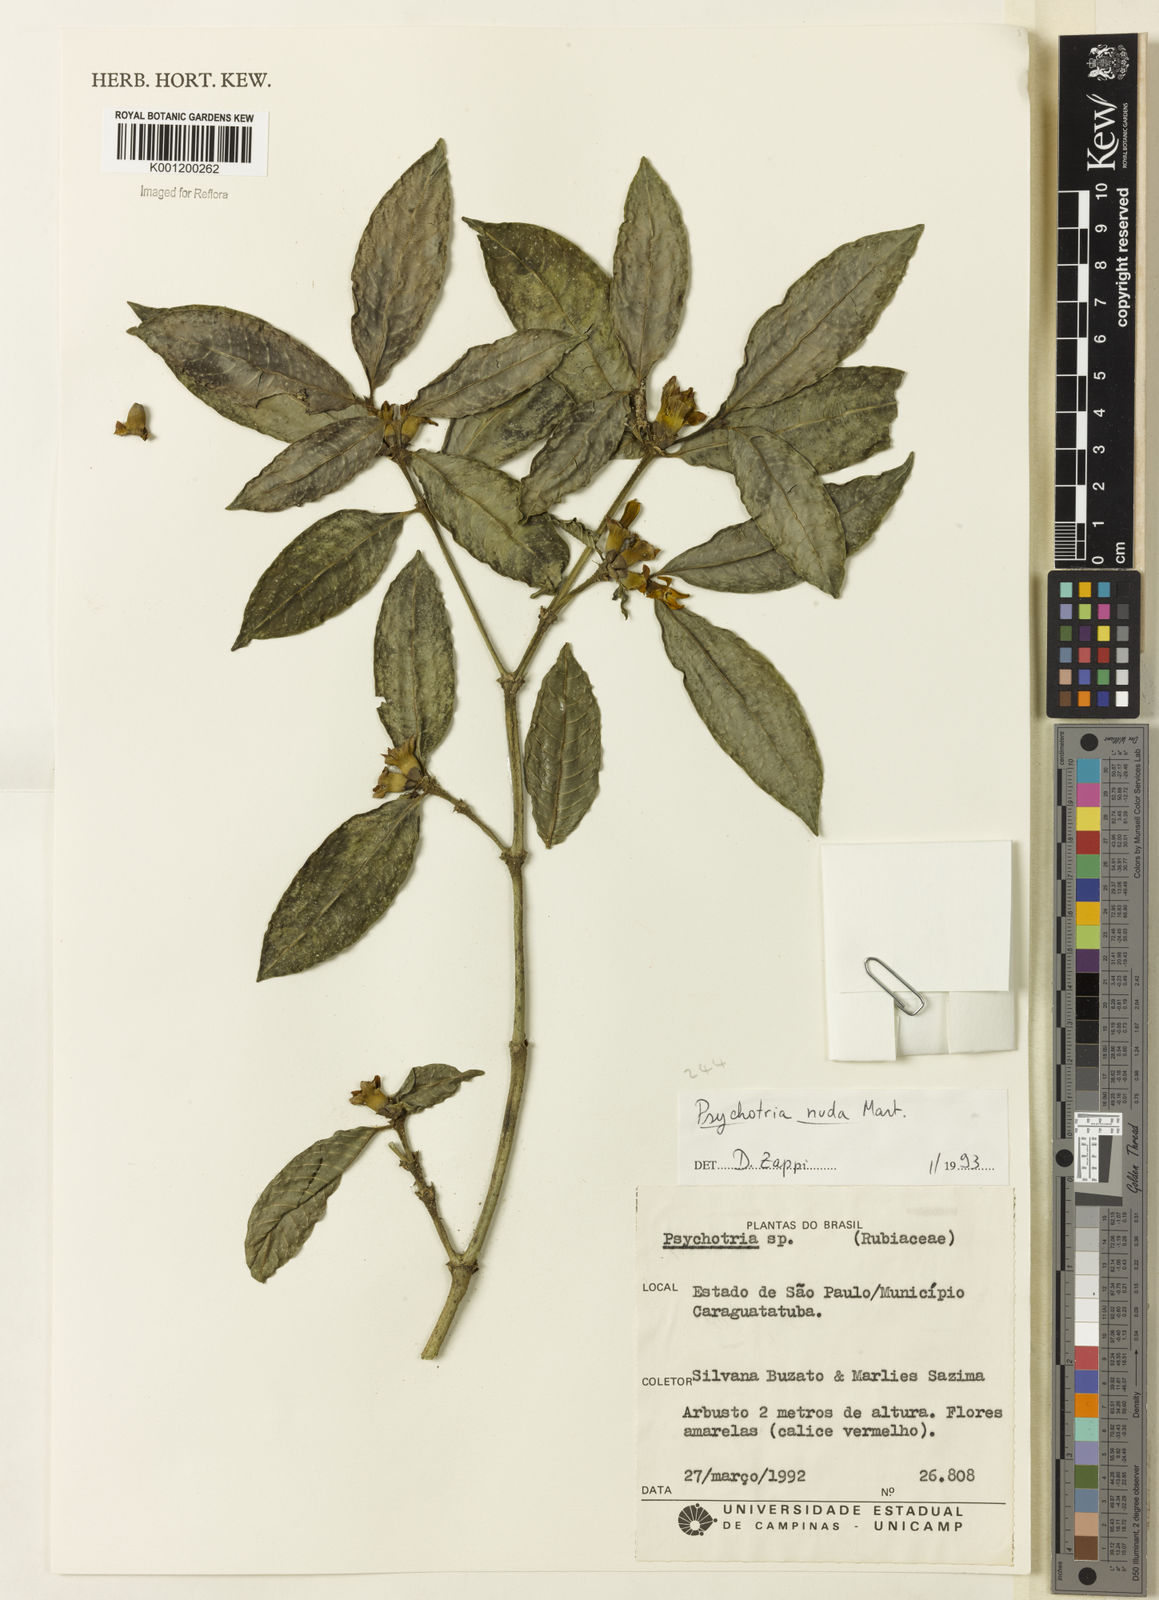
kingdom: Plantae
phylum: Tracheophyta
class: Magnoliopsida
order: Gentianales
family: Rubiaceae
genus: Psychotria
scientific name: Psychotria nuda
